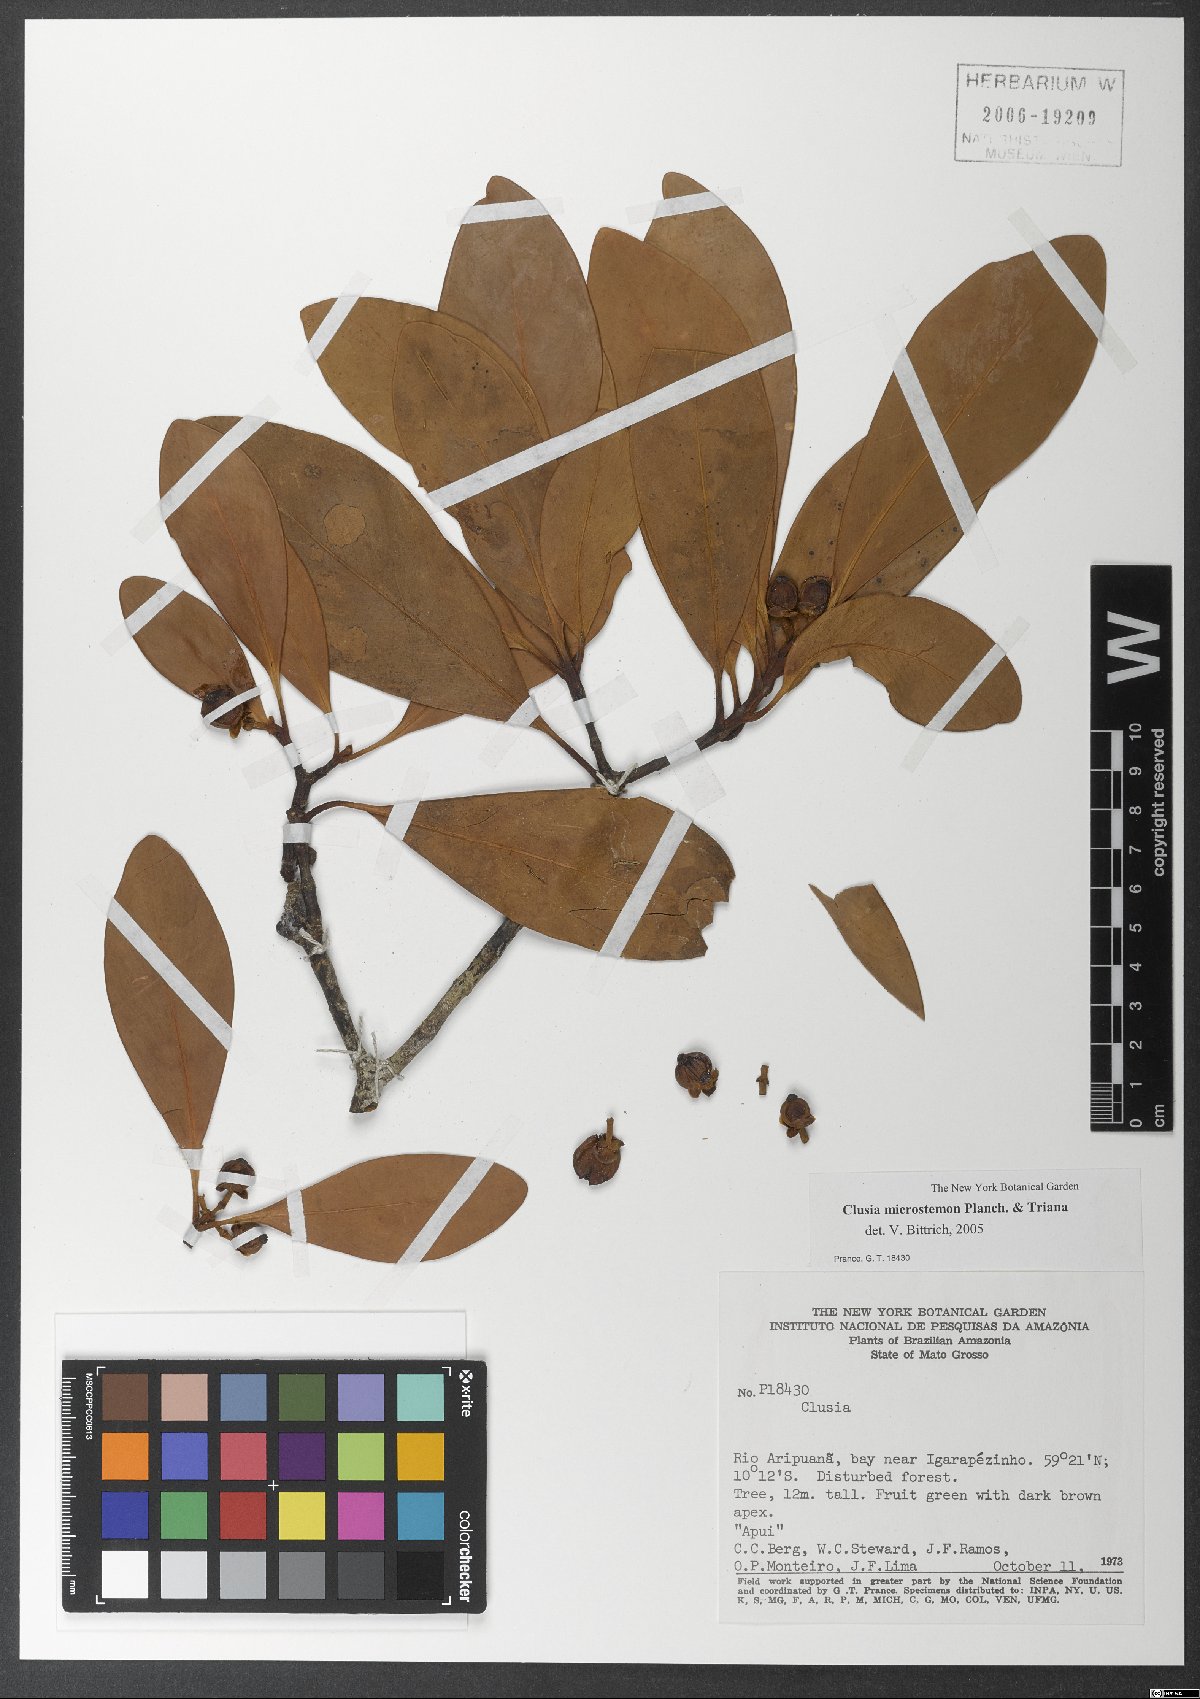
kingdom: Plantae
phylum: Tracheophyta
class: Magnoliopsida
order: Malpighiales
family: Clusiaceae
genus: Clusia
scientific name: Clusia microstemon
